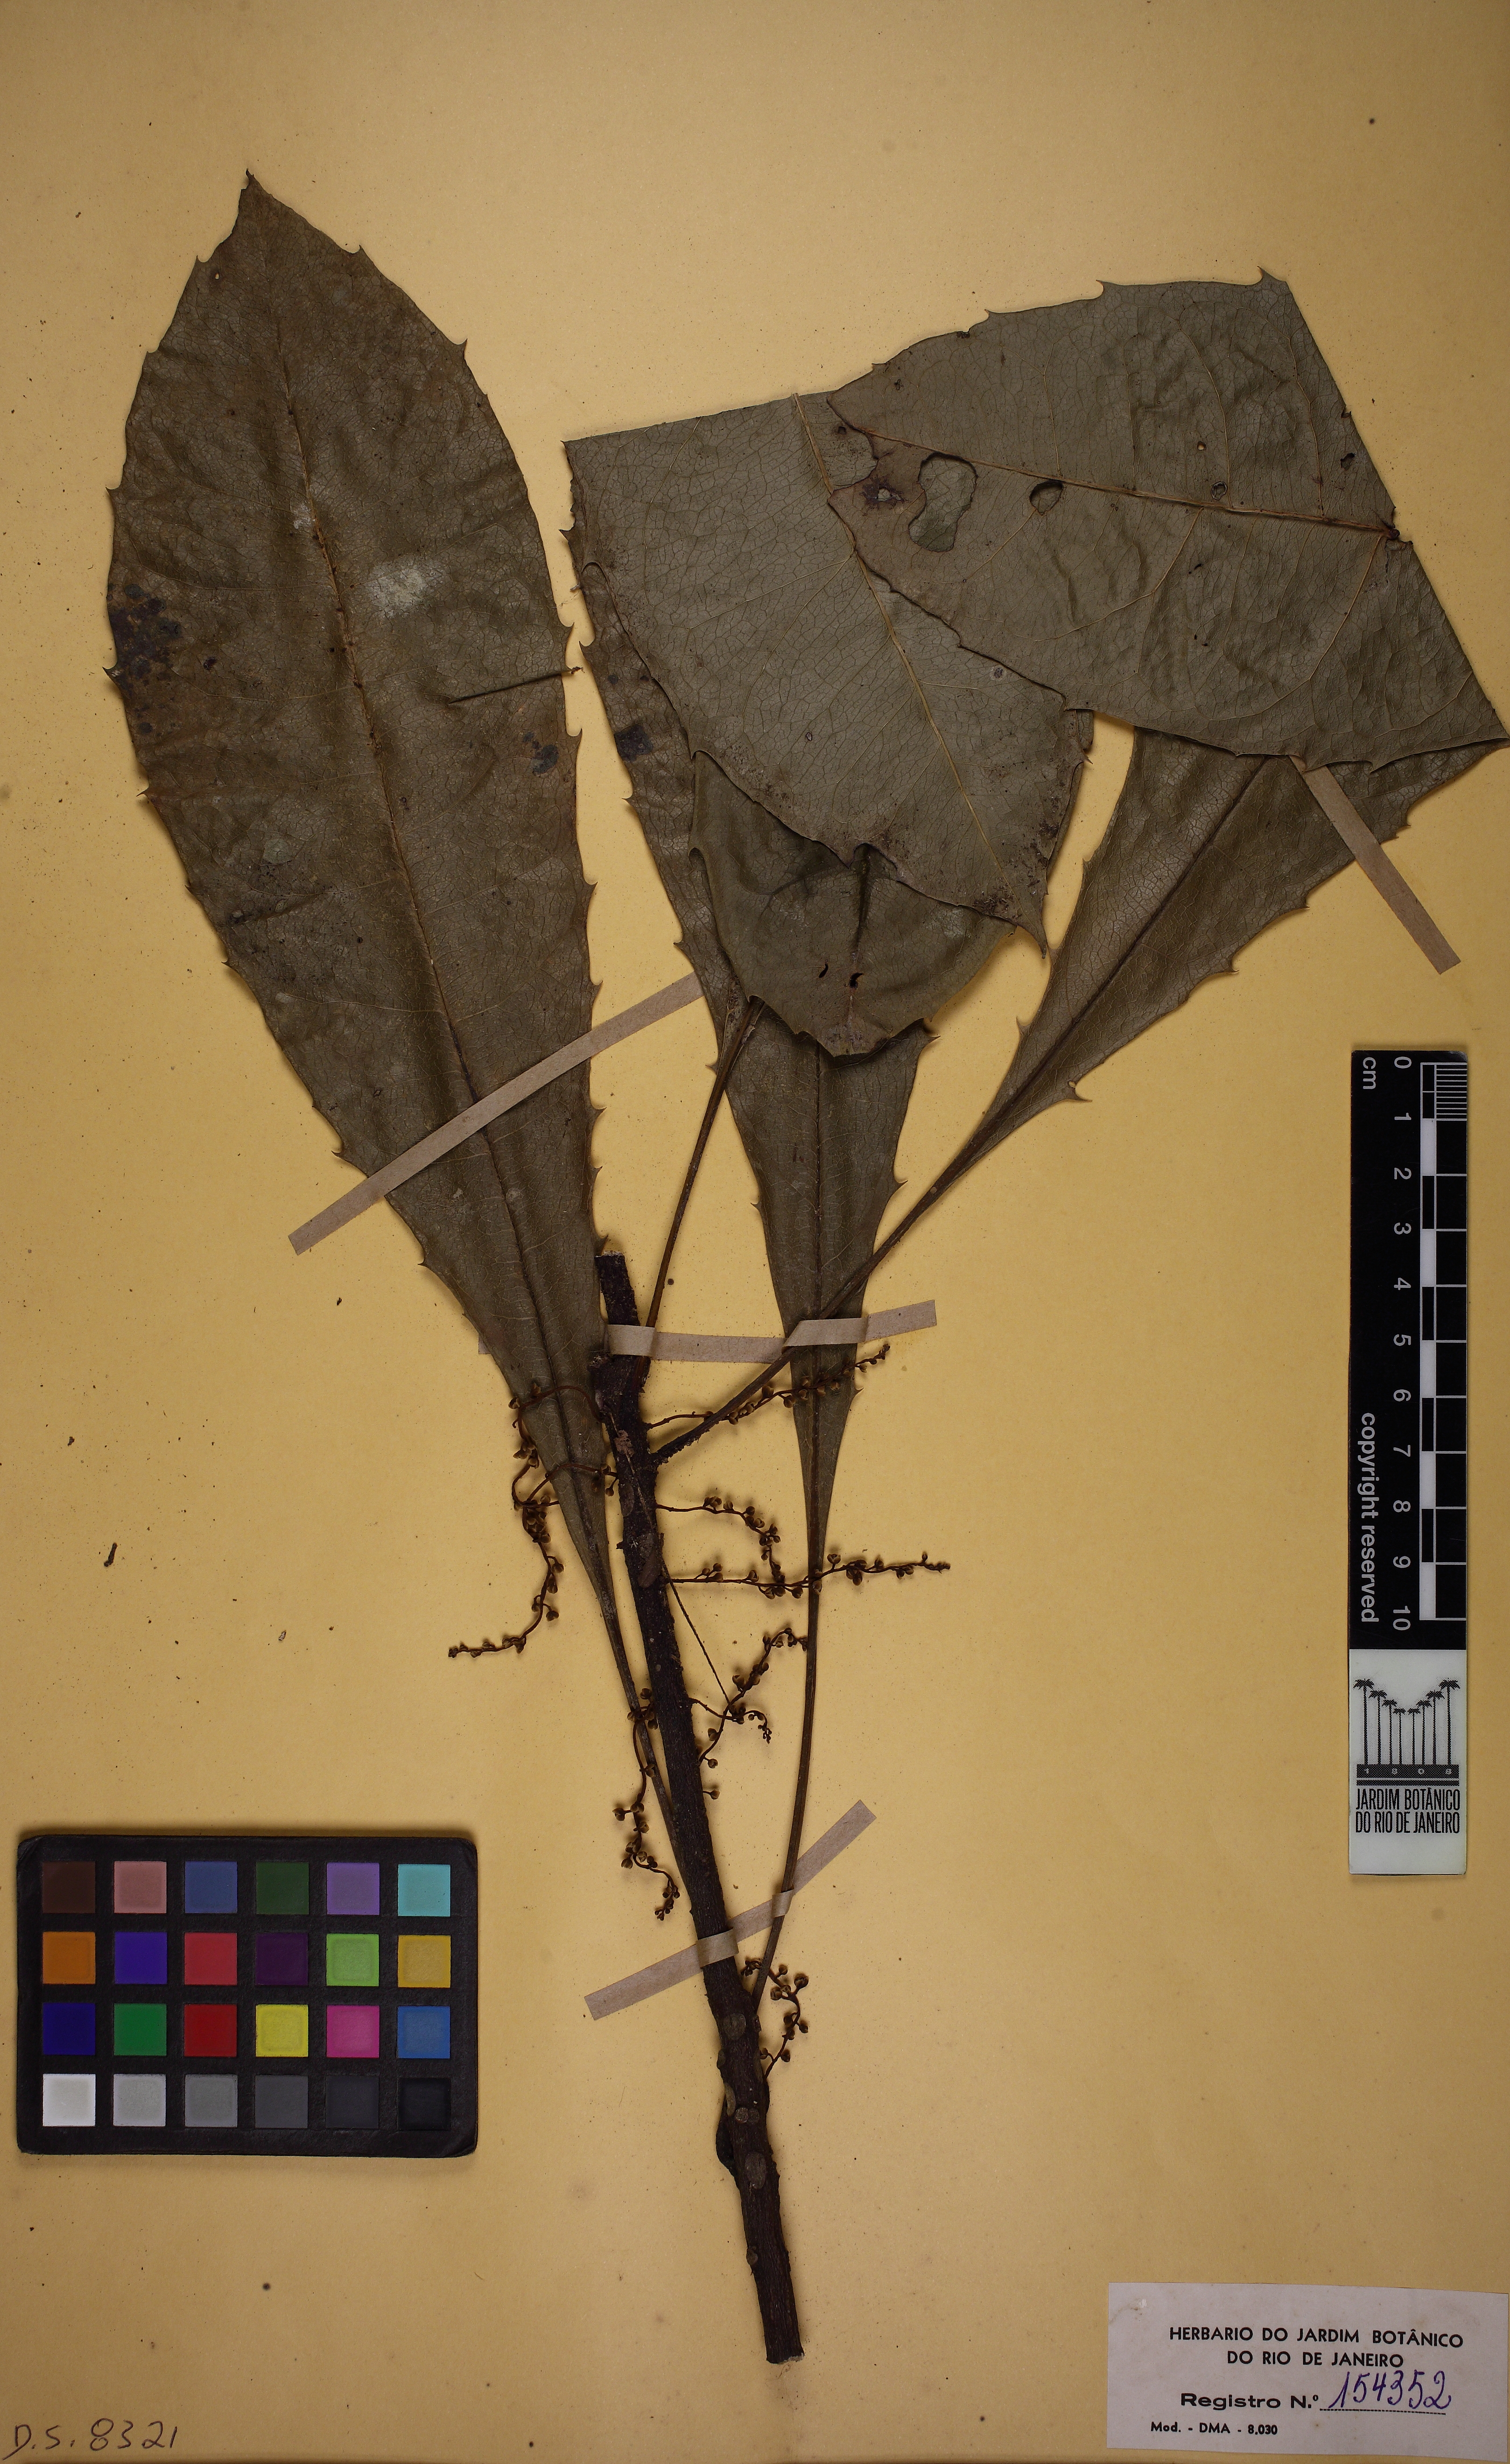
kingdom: Plantae
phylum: Tracheophyta
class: Magnoliopsida
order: Ericales
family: Primulaceae
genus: Clavija
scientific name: Clavija caloneura
